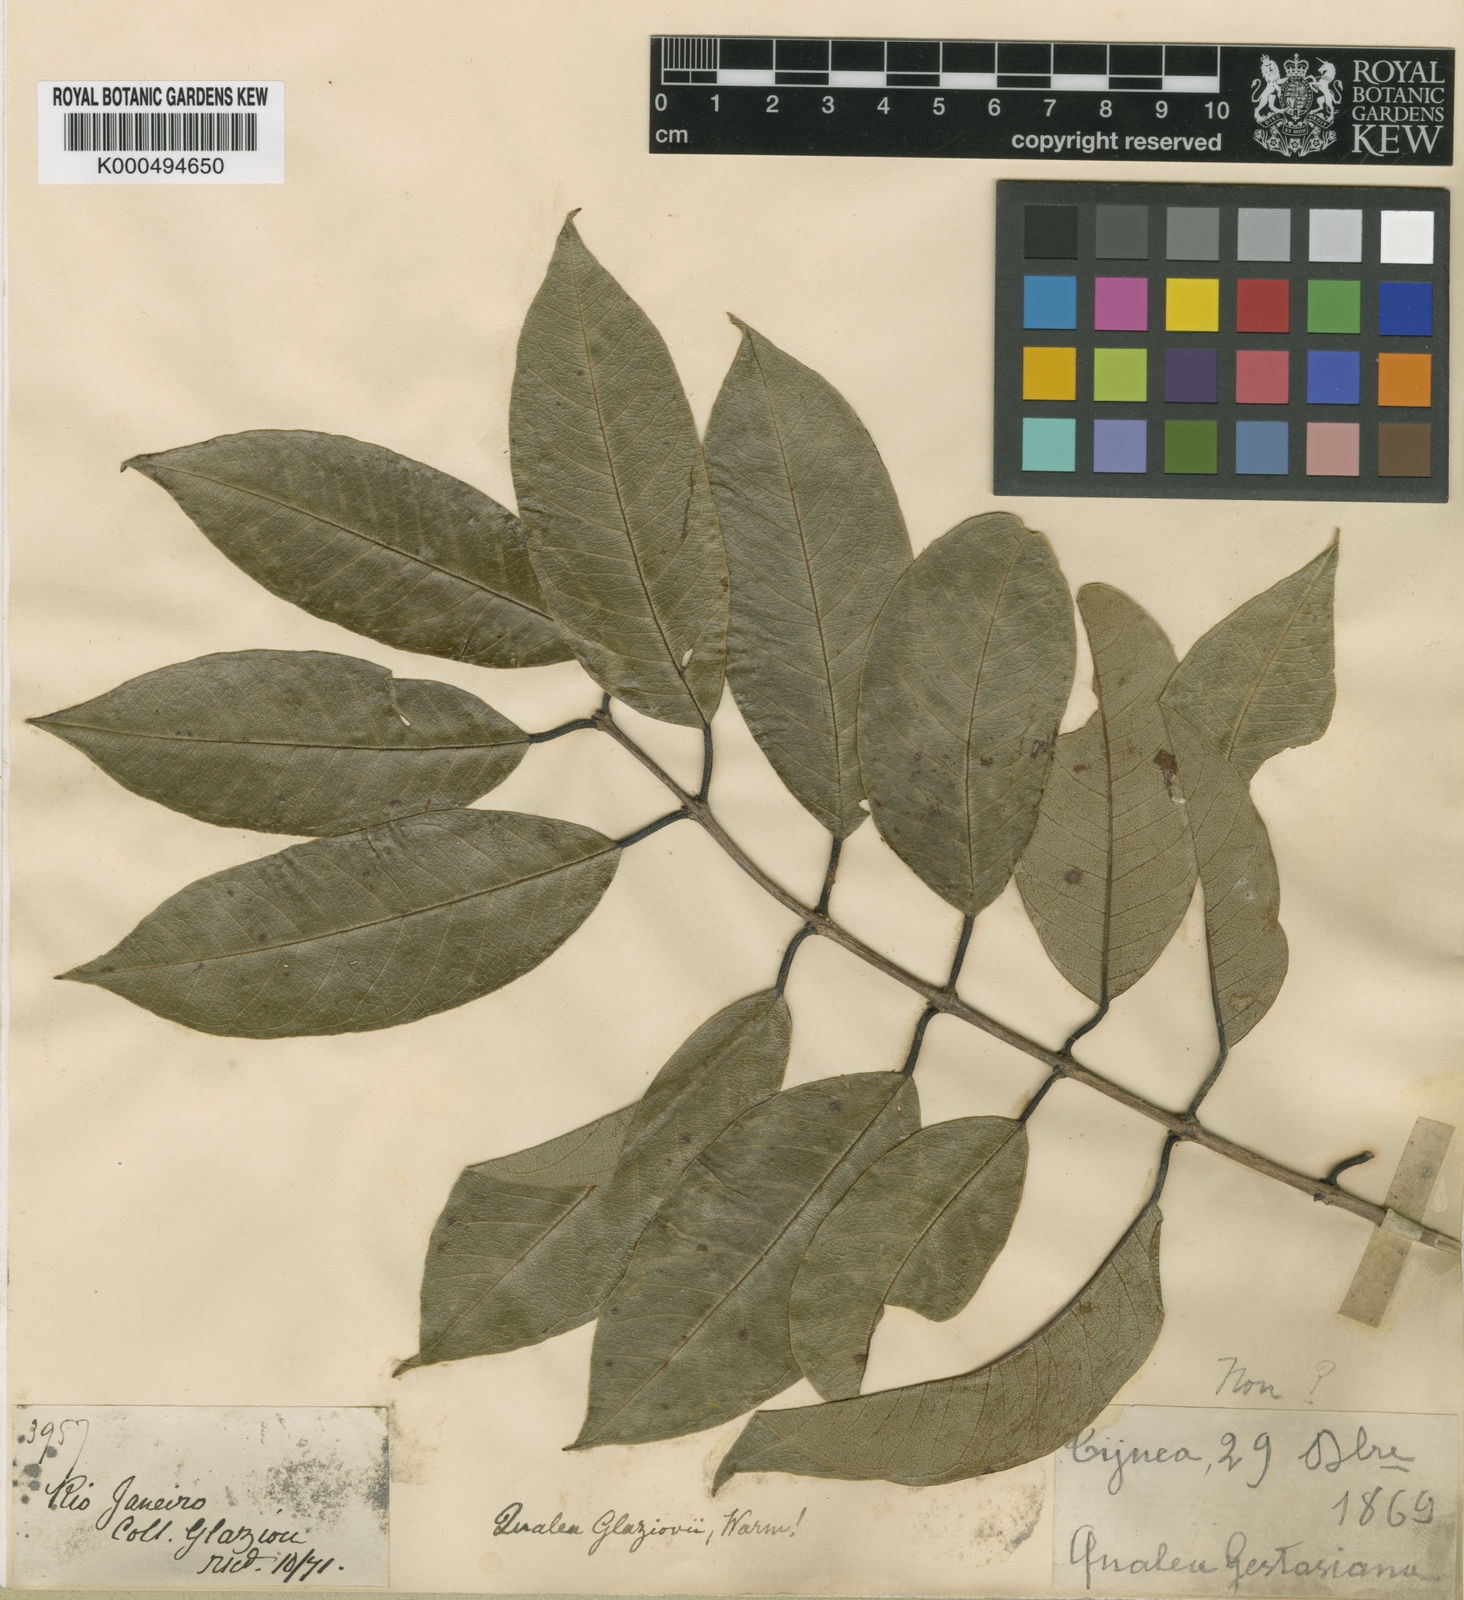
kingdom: Plantae
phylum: Tracheophyta
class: Magnoliopsida
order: Myrtales
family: Vochysiaceae
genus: Qualea
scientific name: Qualea glaziovii
